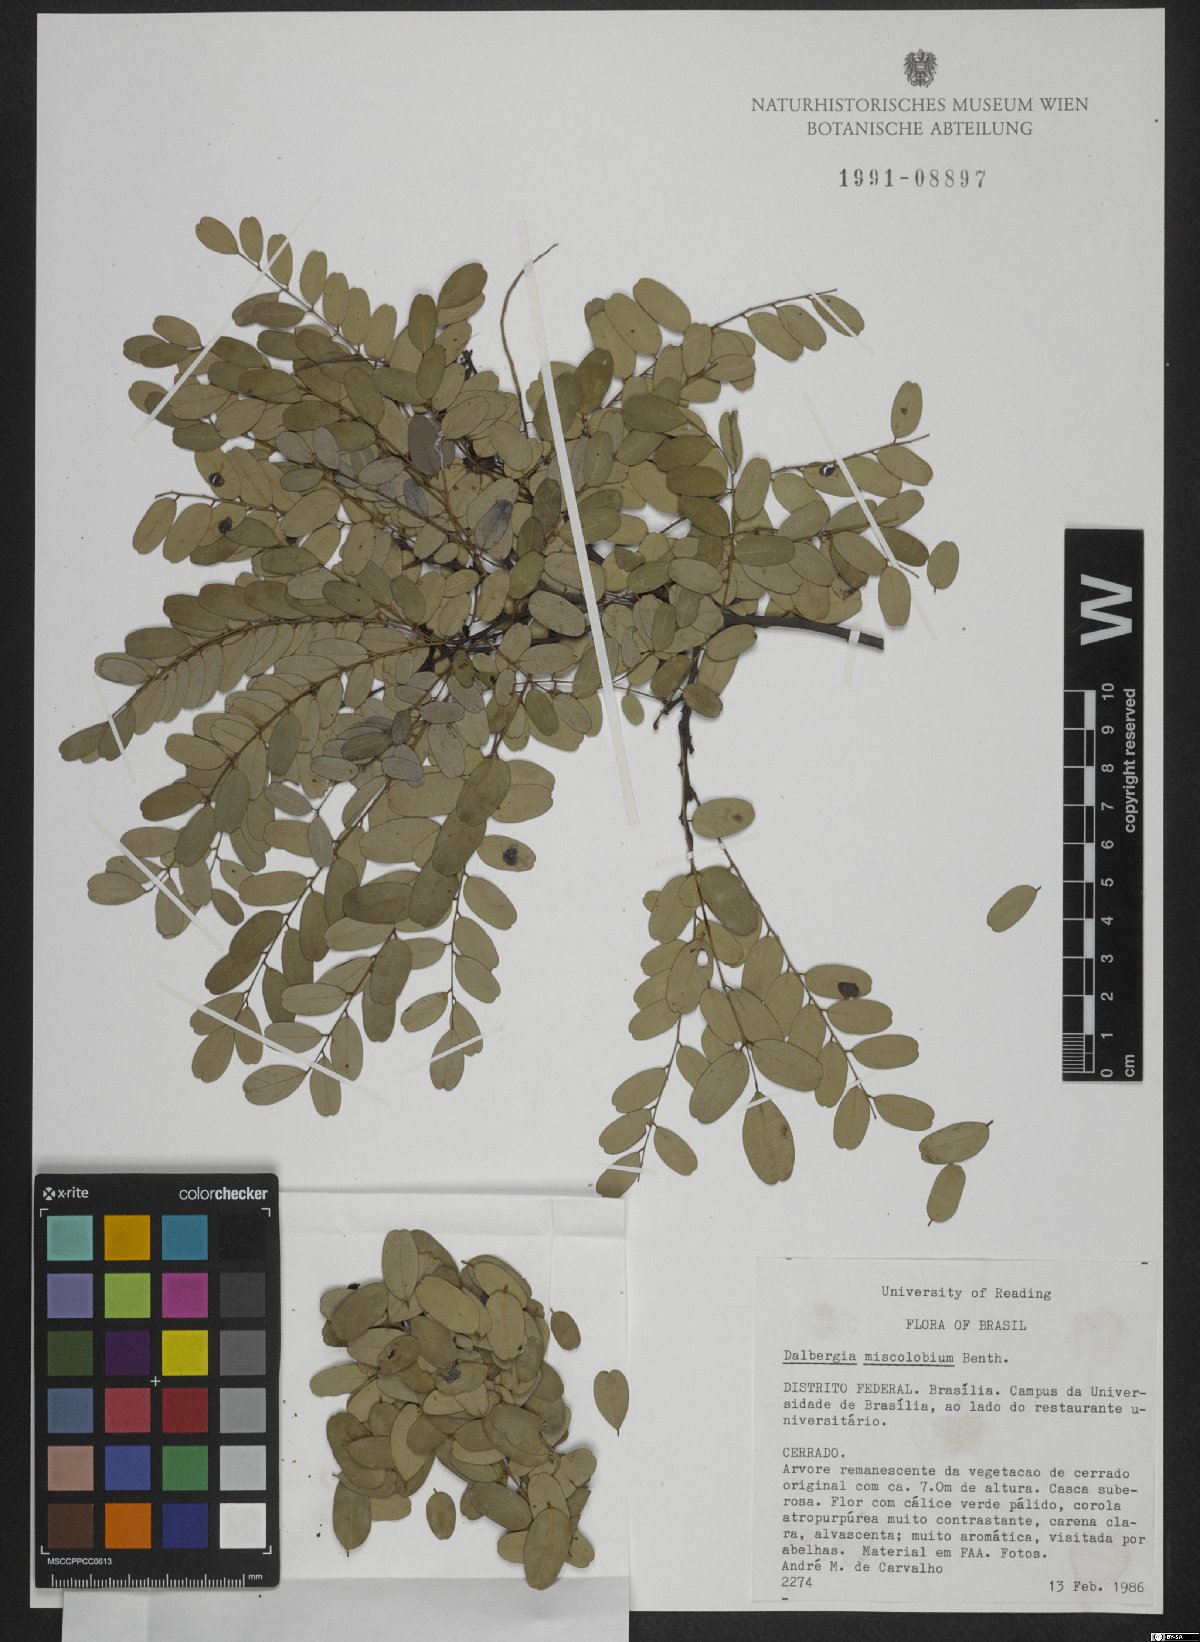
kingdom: Plantae
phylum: Tracheophyta
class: Magnoliopsida
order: Fabales
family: Fabaceae
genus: Dalbergia
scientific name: Dalbergia miscolobium
